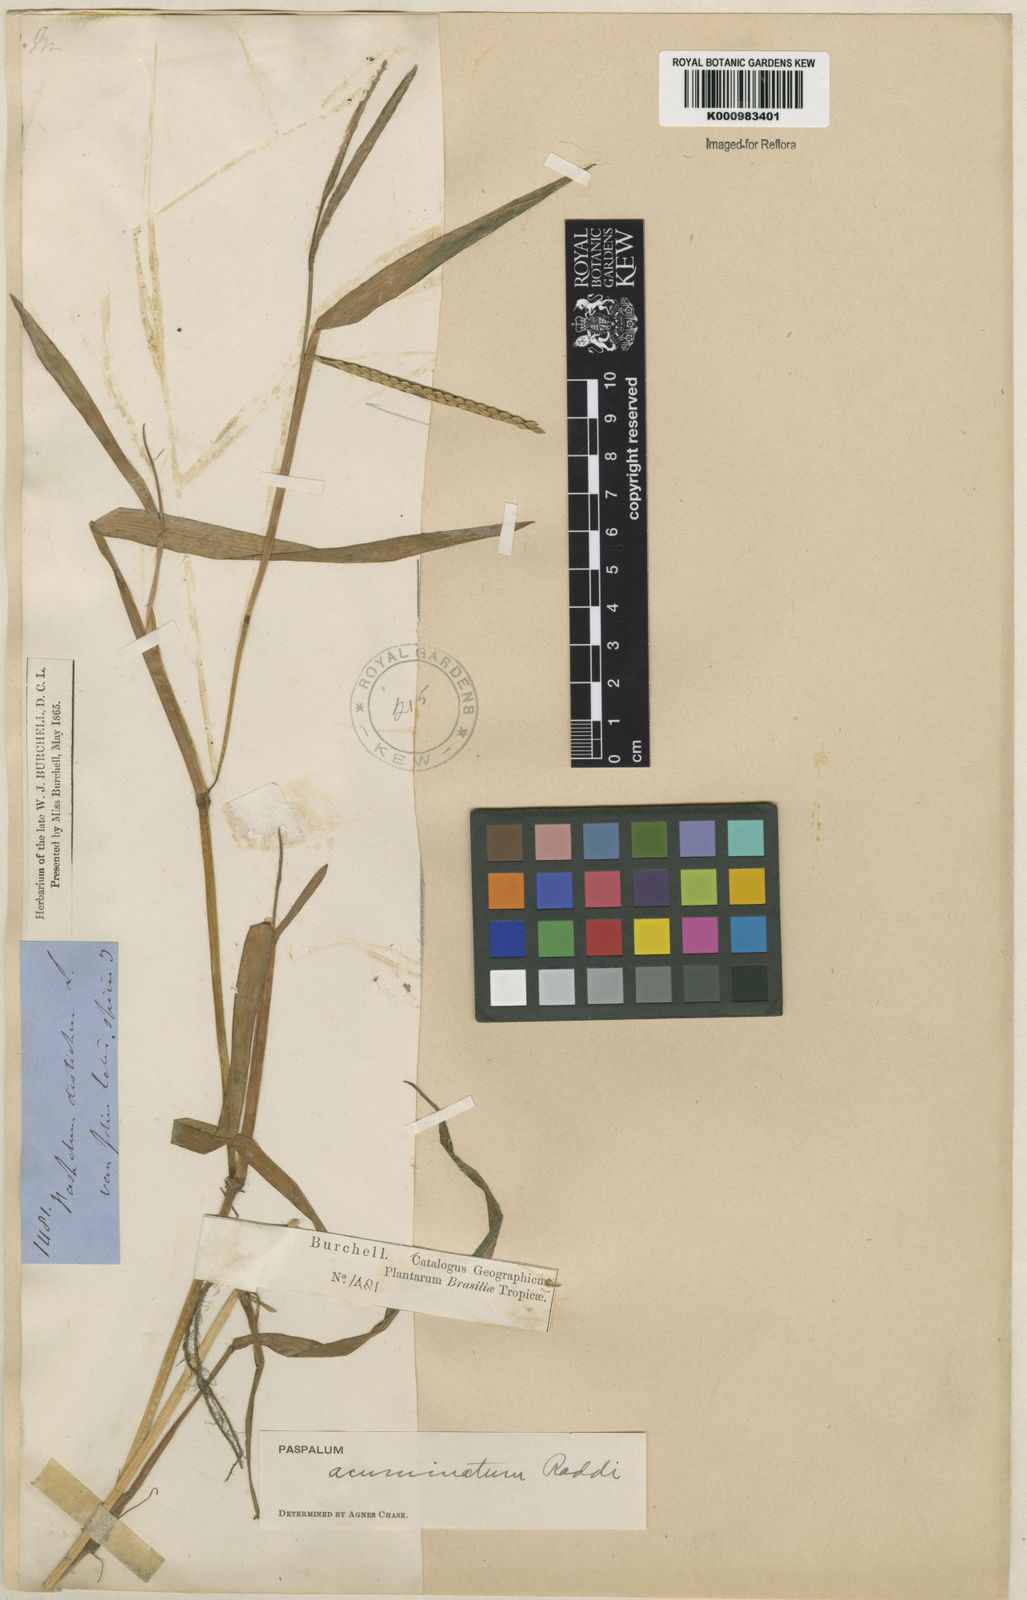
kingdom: Plantae
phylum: Tracheophyta
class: Liliopsida
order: Poales
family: Poaceae
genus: Paspalum
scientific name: Paspalum acuminatum
